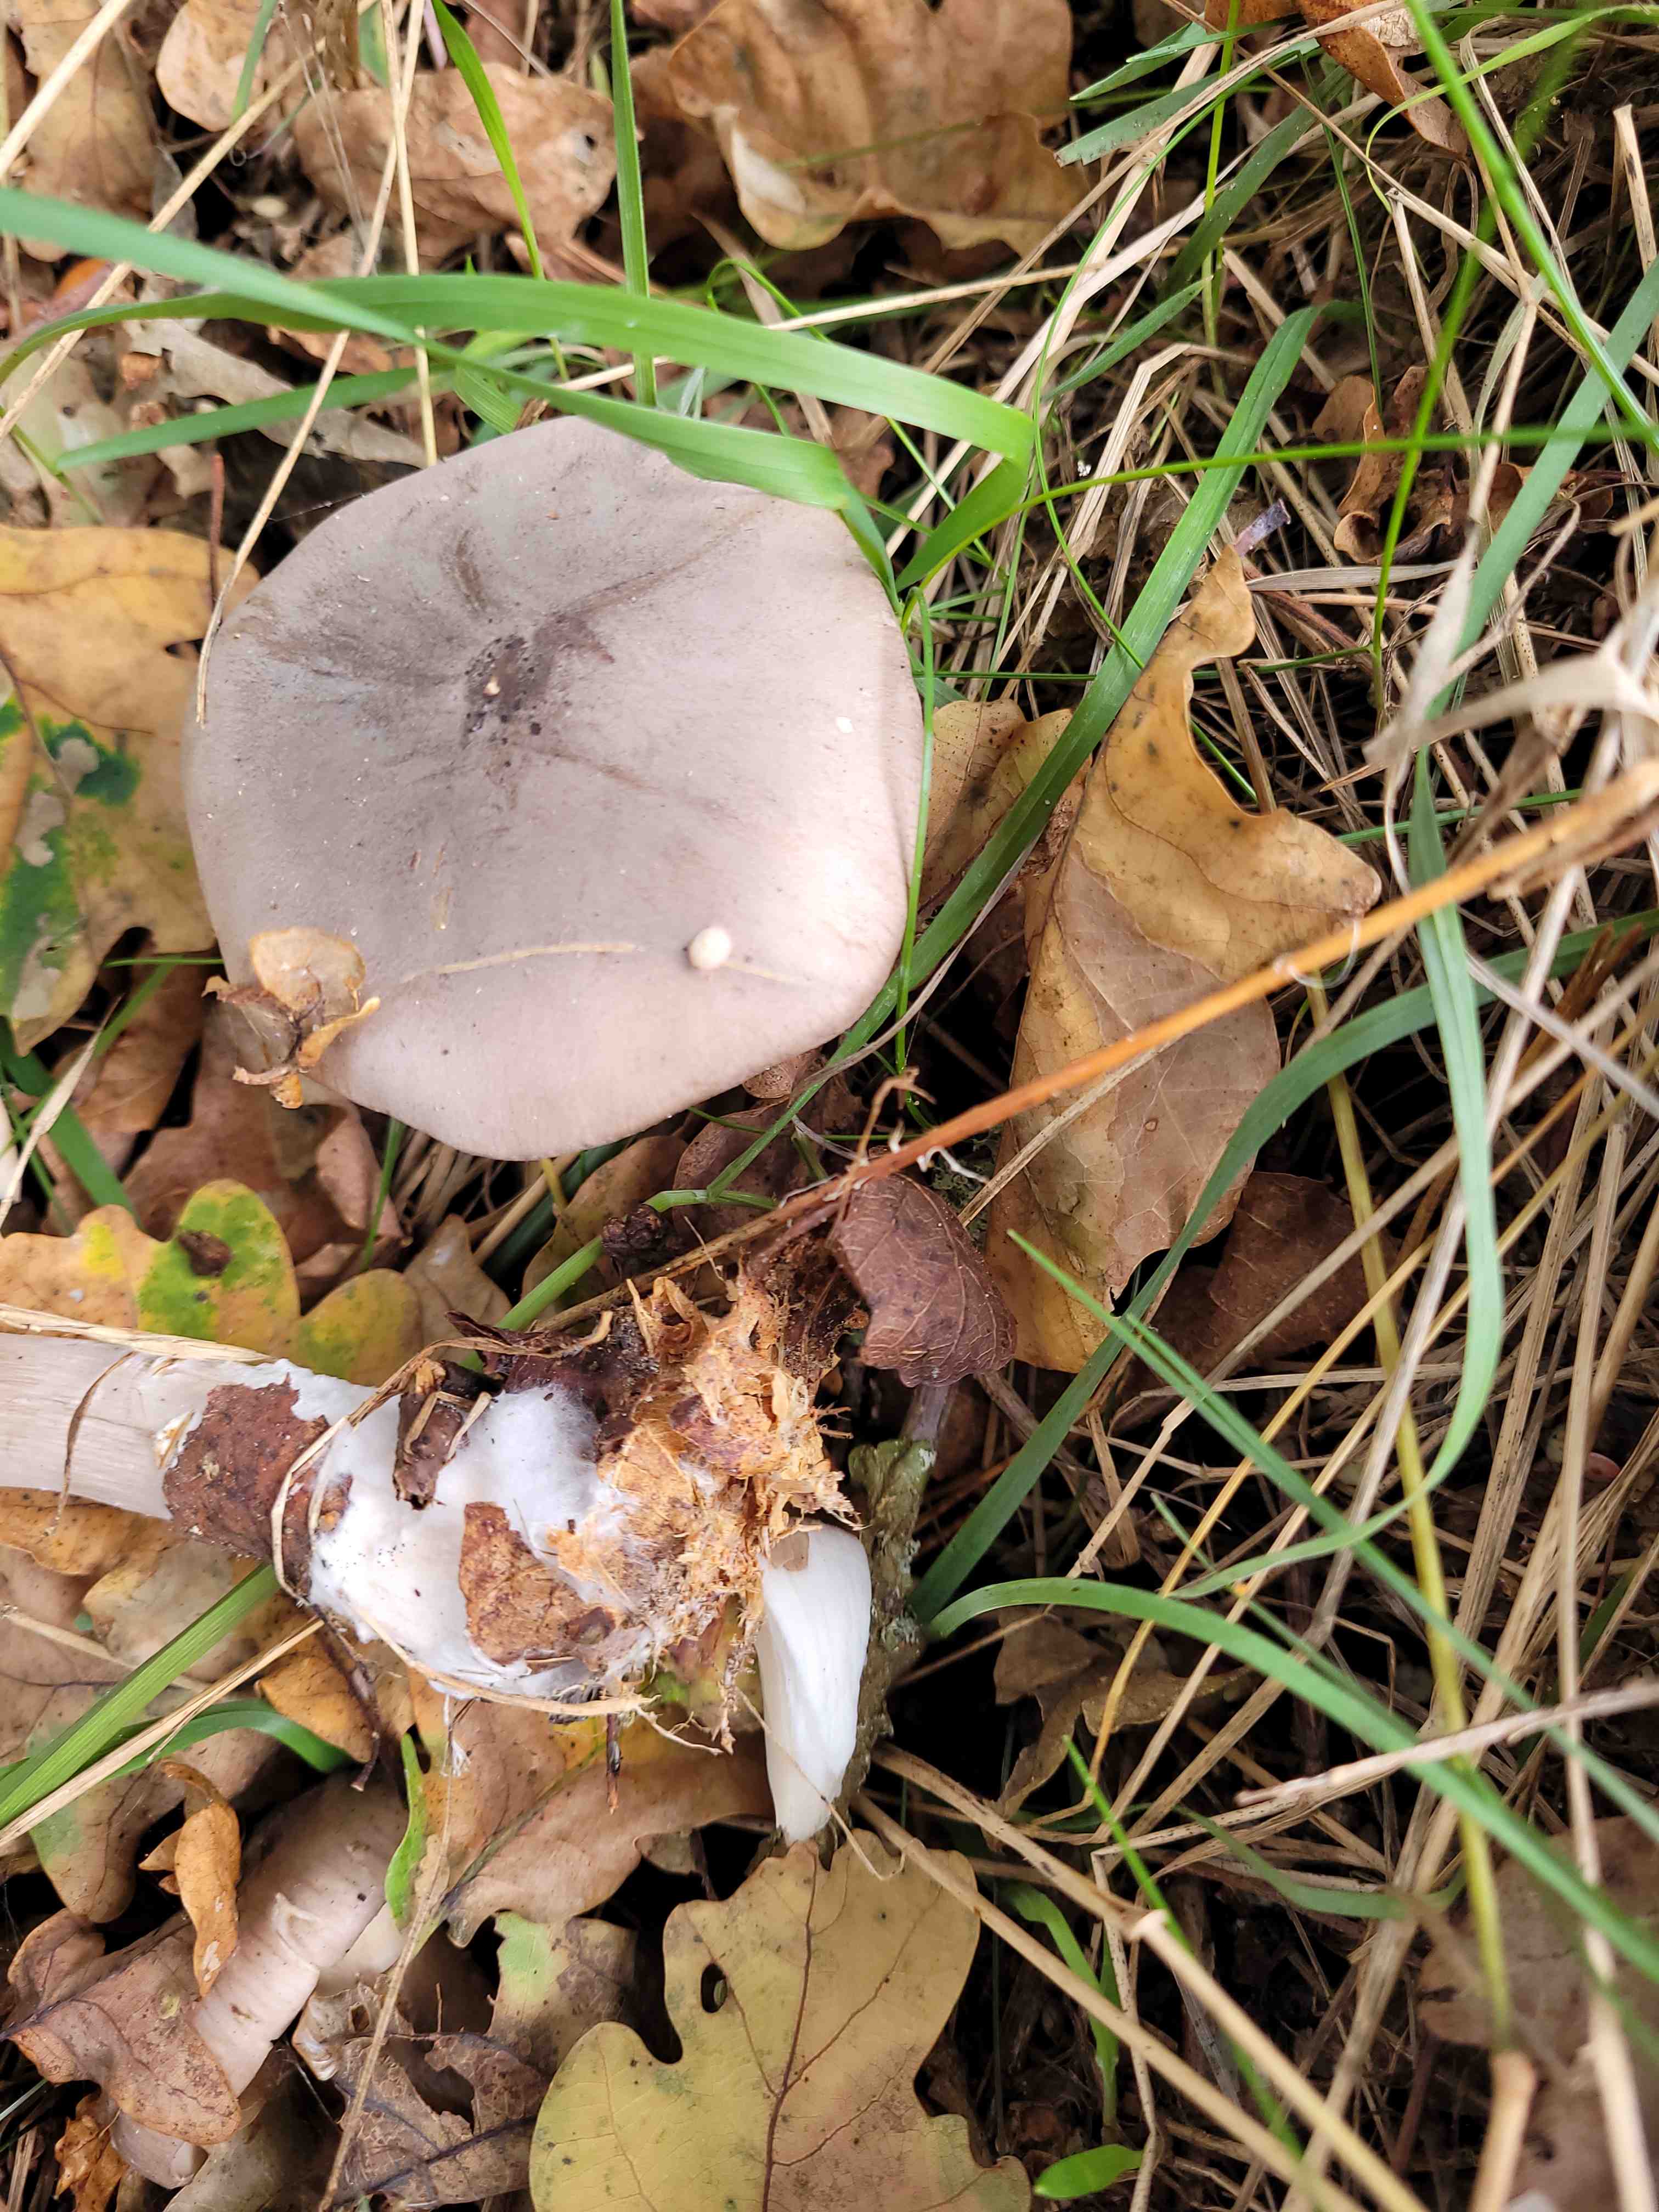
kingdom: Fungi
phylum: Basidiomycota
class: Agaricomycetes
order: Agaricales
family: Tricholomataceae
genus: Clitocybe
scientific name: Clitocybe nebularis
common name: tåge-tragthat
